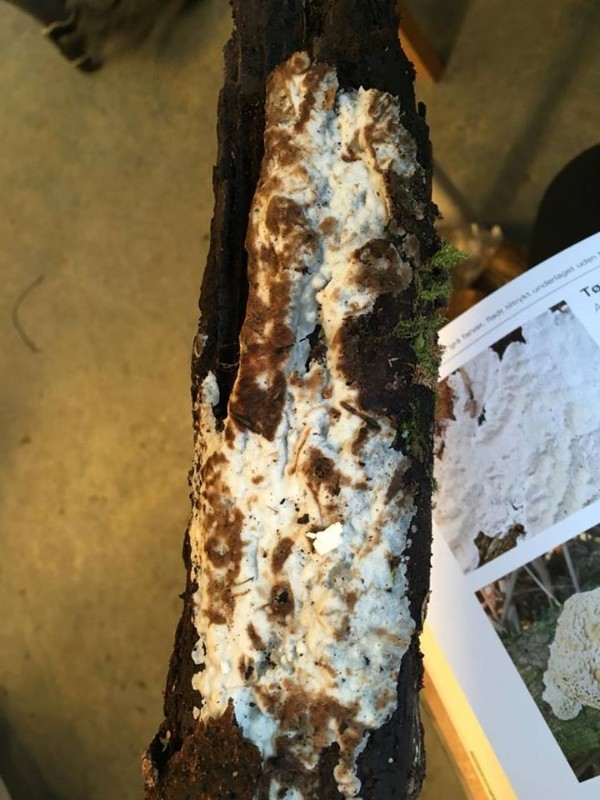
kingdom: Fungi
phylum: Basidiomycota
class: Agaricomycetes
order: Polyporales
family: Meripilaceae
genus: Rigidoporus
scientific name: Rigidoporus sanguinolentus
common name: blod-skorpeporesvamp
